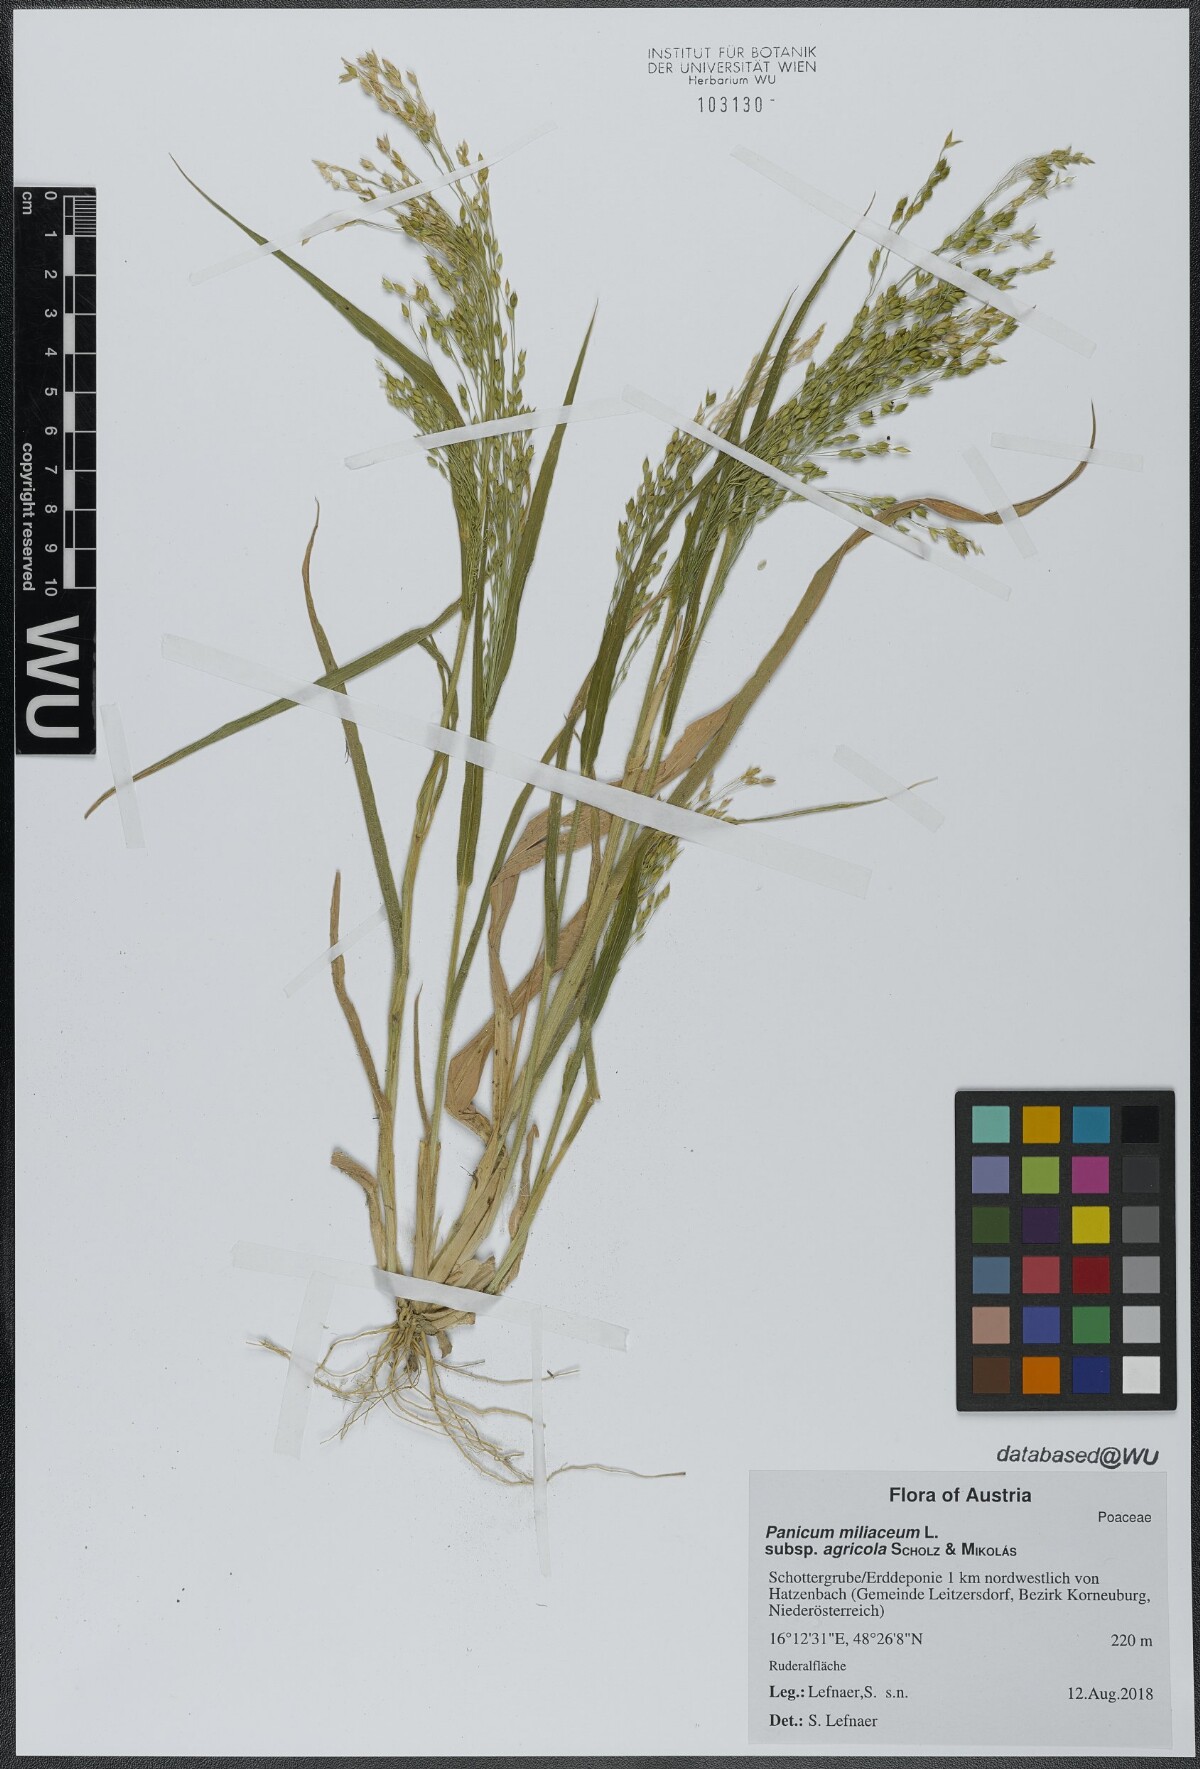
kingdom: Plantae
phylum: Tracheophyta
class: Liliopsida
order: Poales
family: Poaceae
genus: Panicum
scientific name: Panicum miliaceum
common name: Common millet
